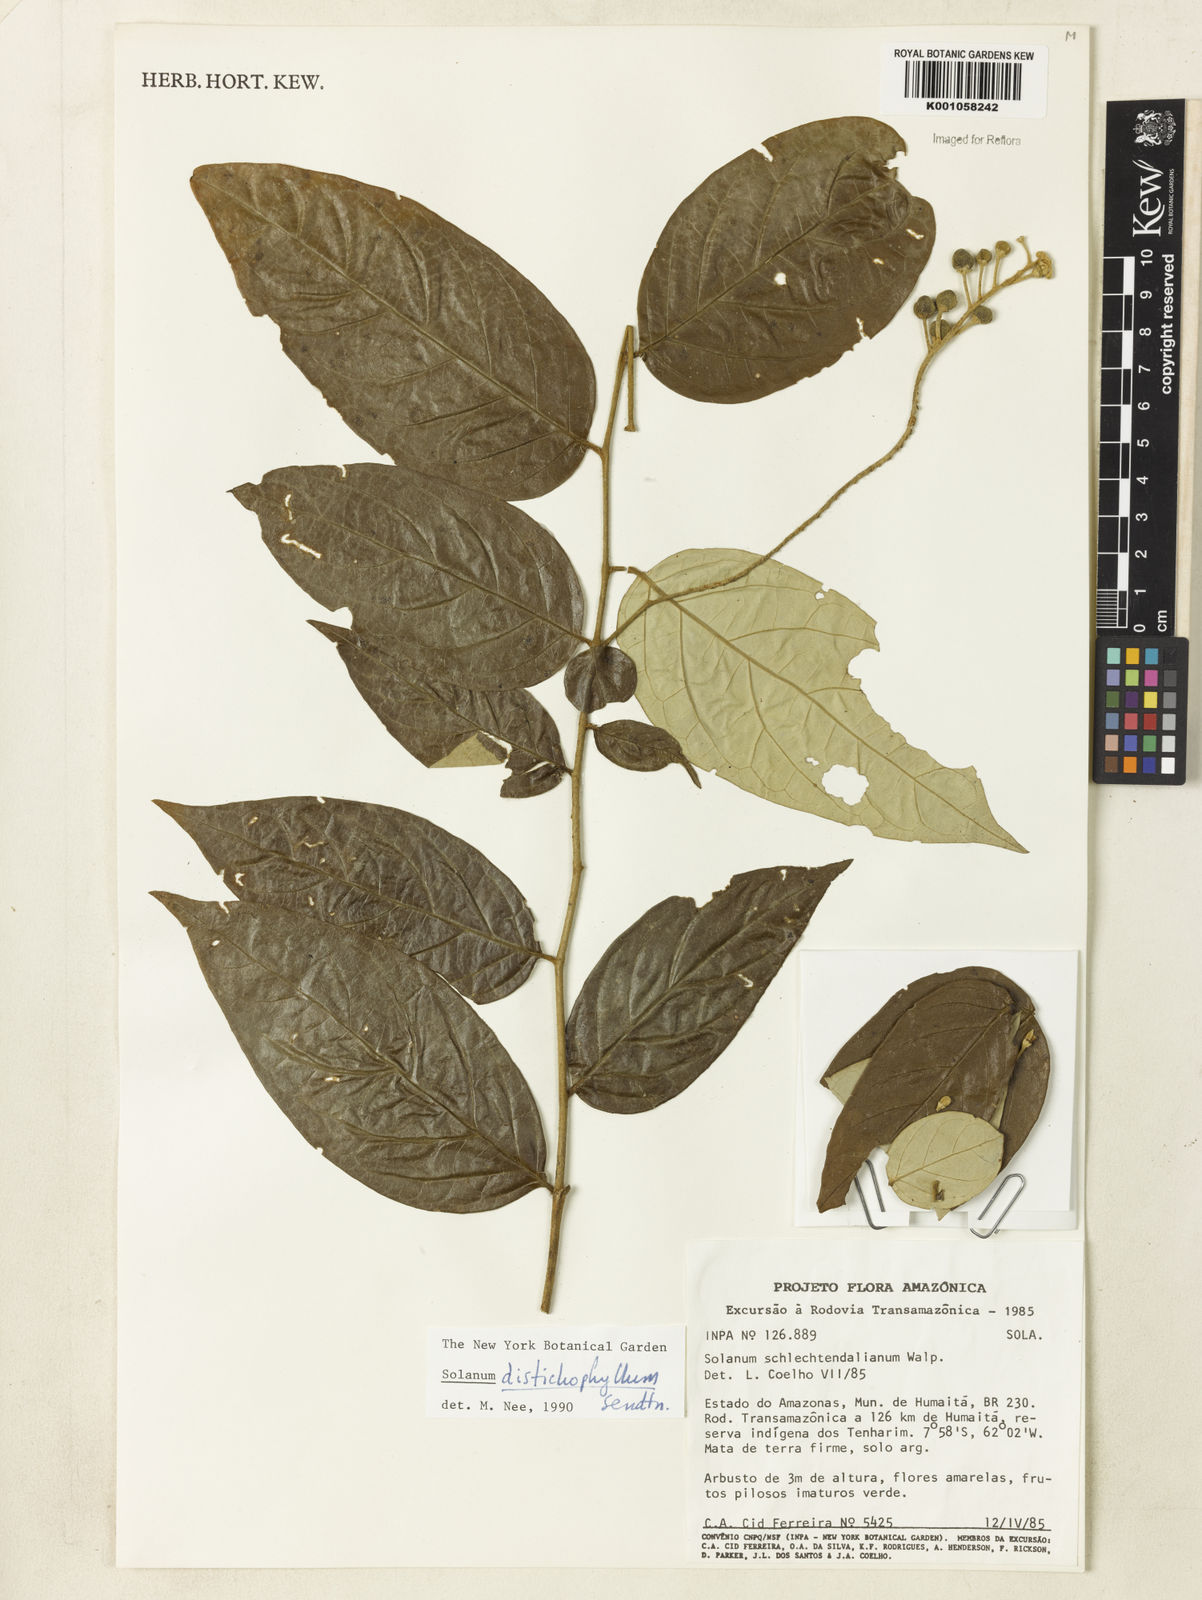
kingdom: Plantae
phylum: Tracheophyta
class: Magnoliopsida
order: Solanales
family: Solanaceae
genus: Solanum
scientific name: Solanum distichophyllum
